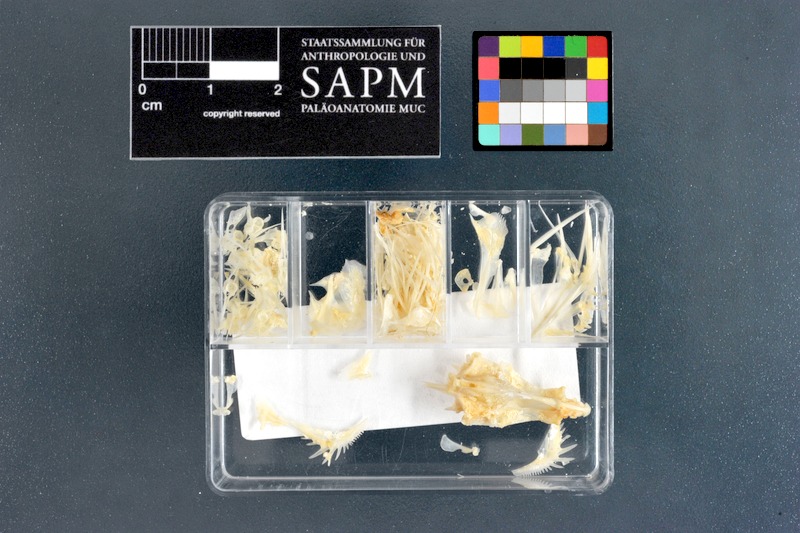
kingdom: Animalia
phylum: Chordata
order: Perciformes
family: Terapontidae
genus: Terapon
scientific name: Terapon puta
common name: Small-scaled terapon
